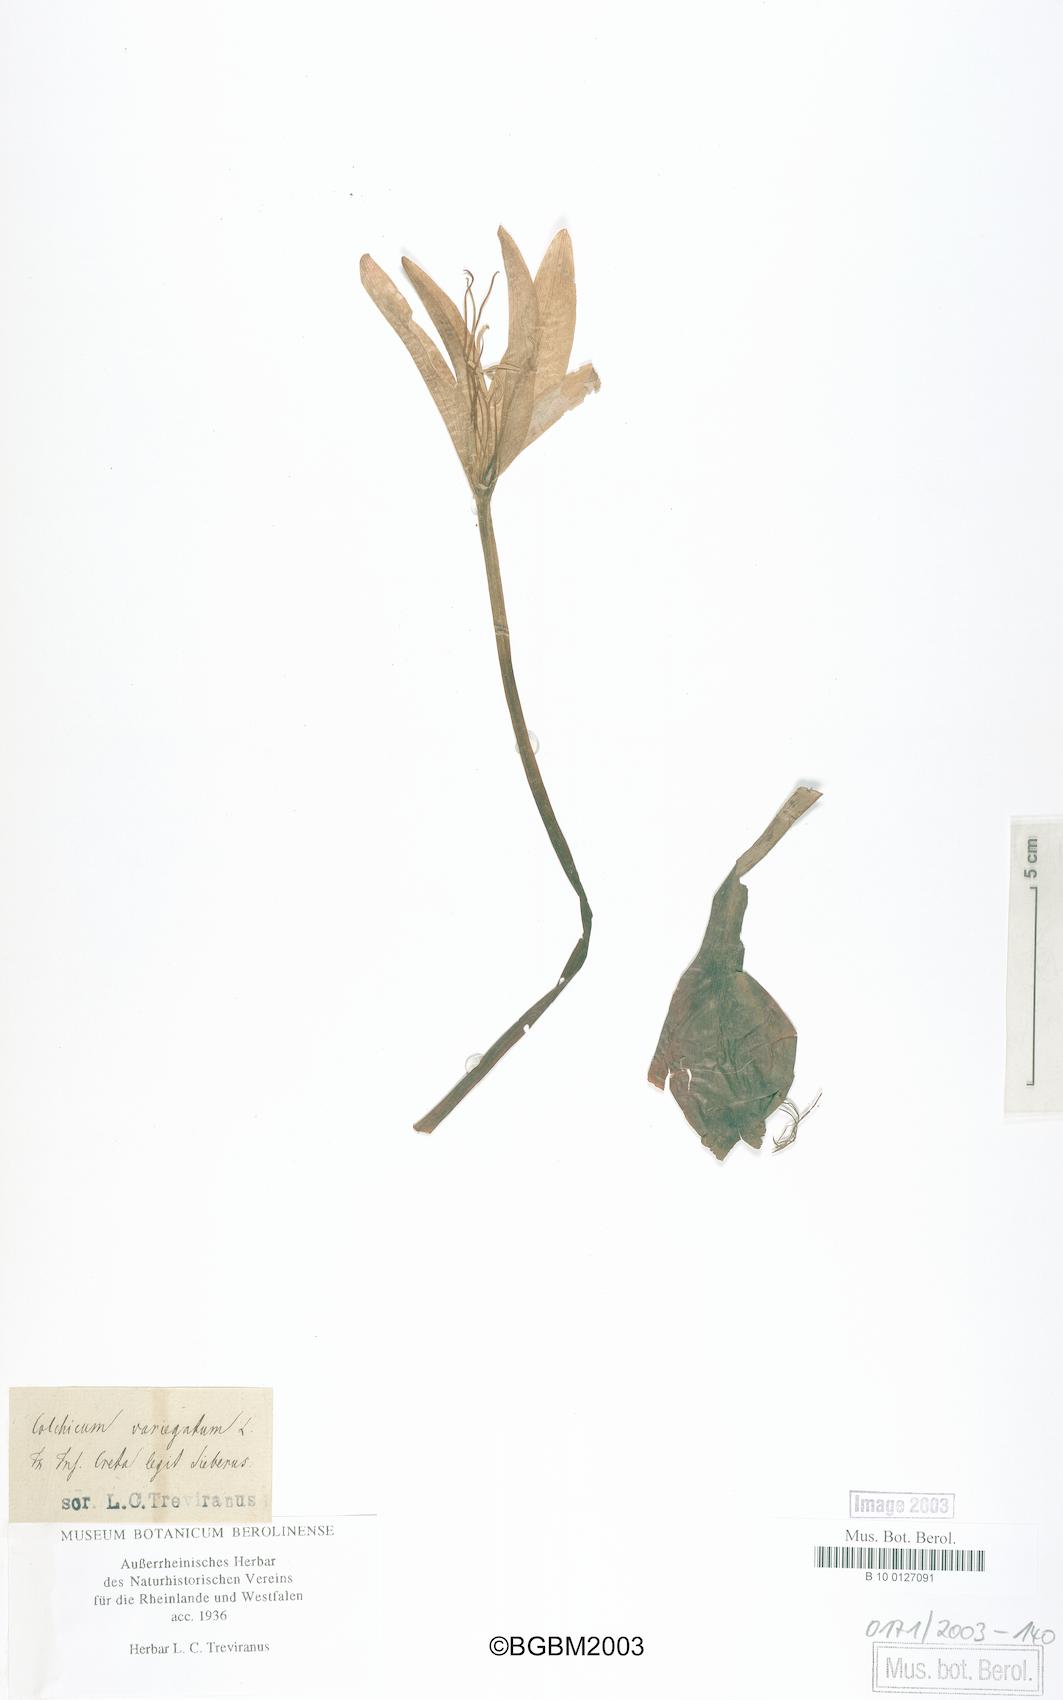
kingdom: Plantae
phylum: Tracheophyta
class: Liliopsida
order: Liliales
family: Colchicaceae
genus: Colchicum
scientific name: Colchicum macrophyllum
